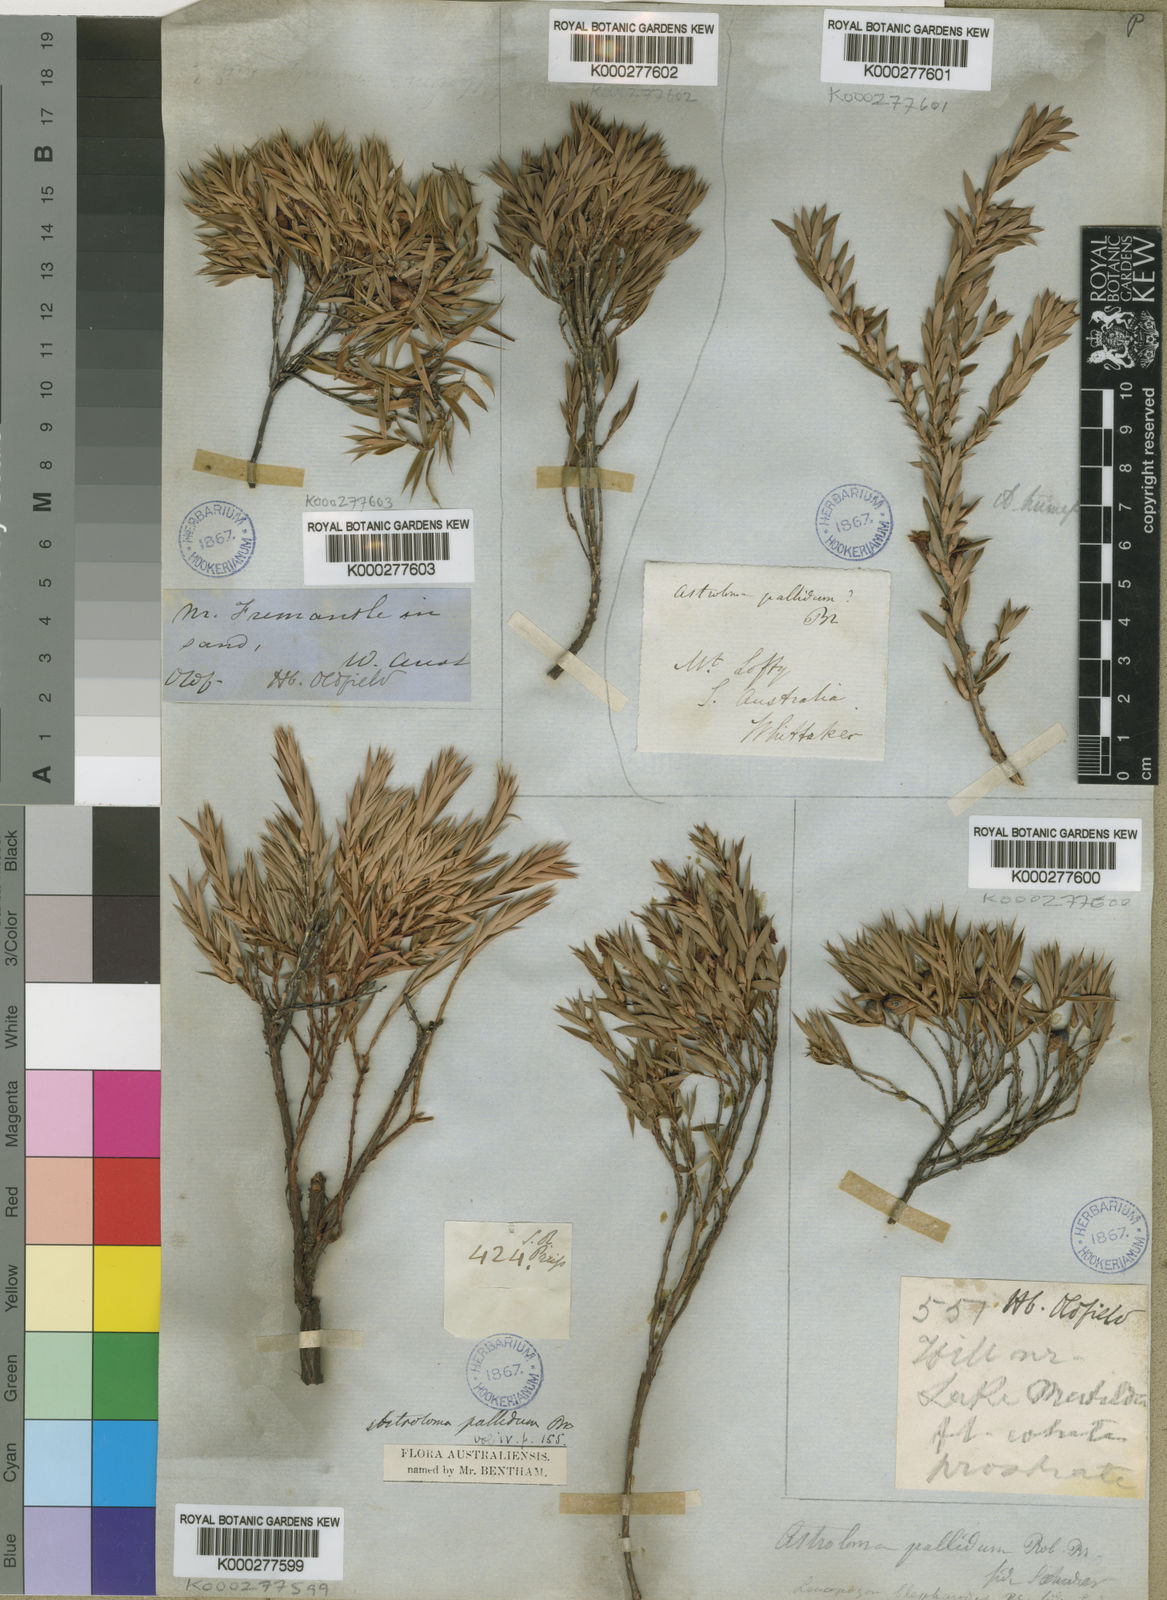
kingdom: Plantae
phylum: Tracheophyta
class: Magnoliopsida
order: Ericales
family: Ericaceae
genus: Styphelia
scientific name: Styphelia pallida
